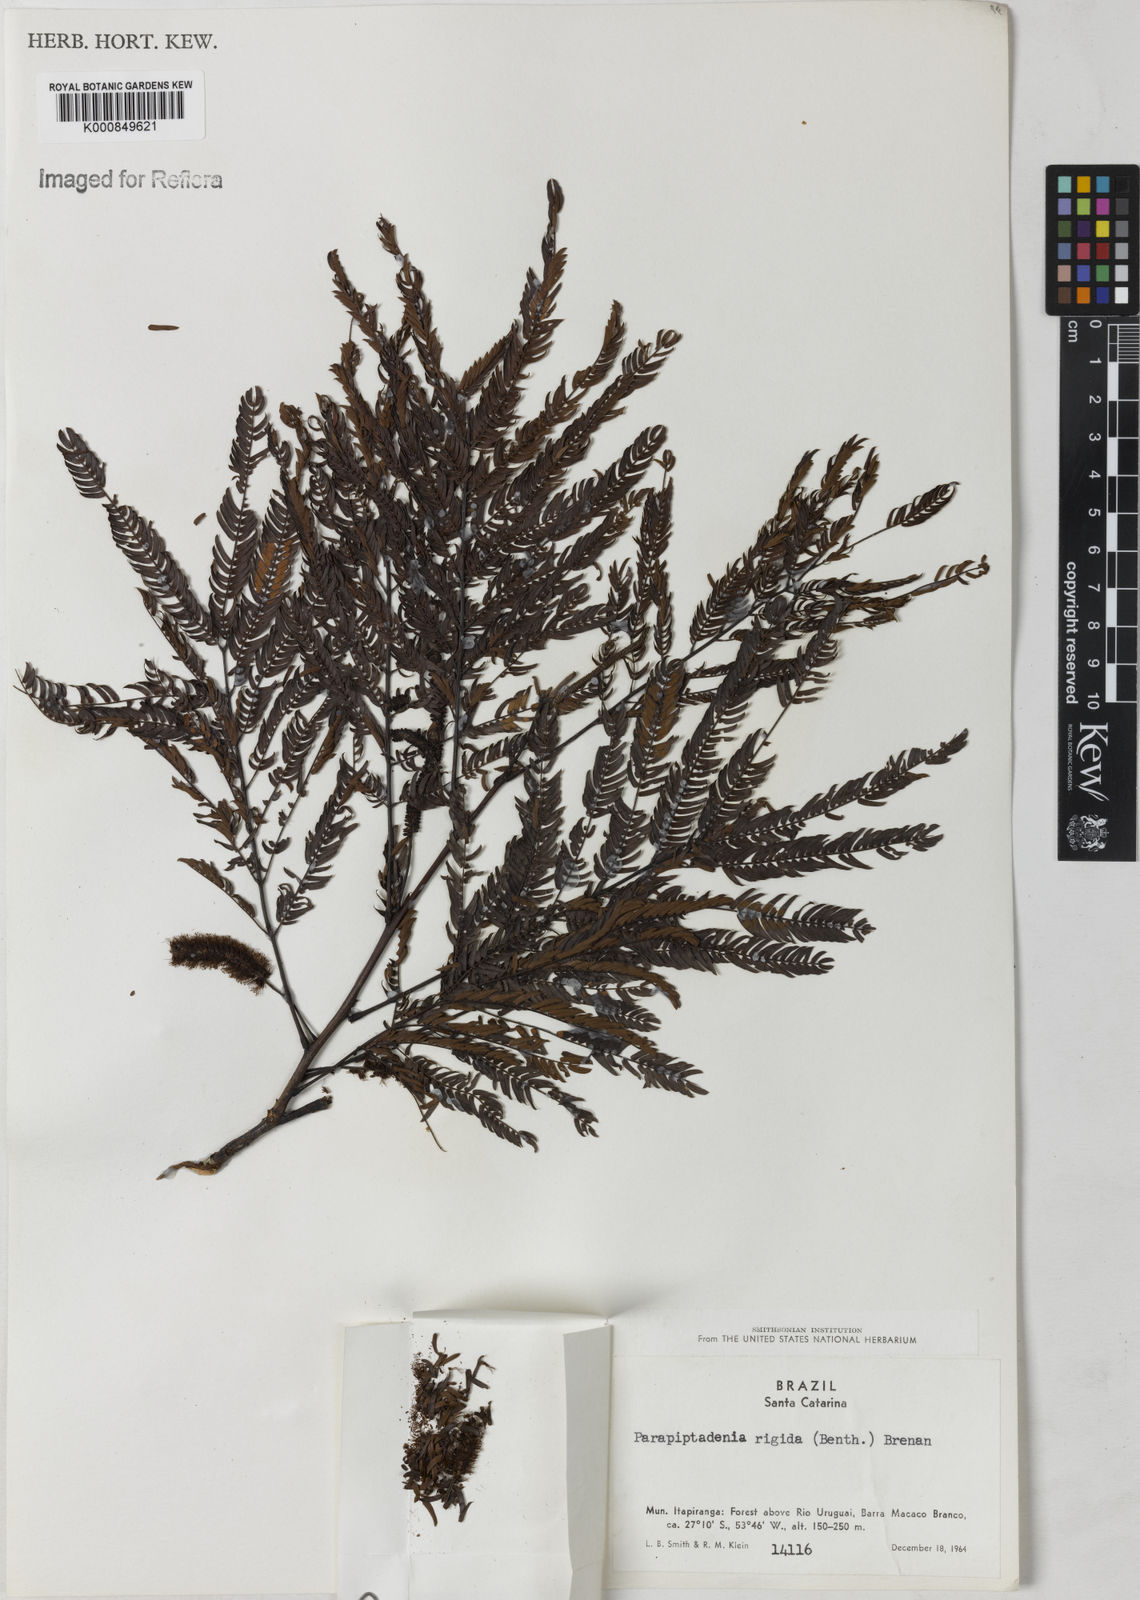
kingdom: Plantae
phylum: Tracheophyta
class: Magnoliopsida
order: Fabales
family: Fabaceae
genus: Parapiptadenia
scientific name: Parapiptadenia rigida
